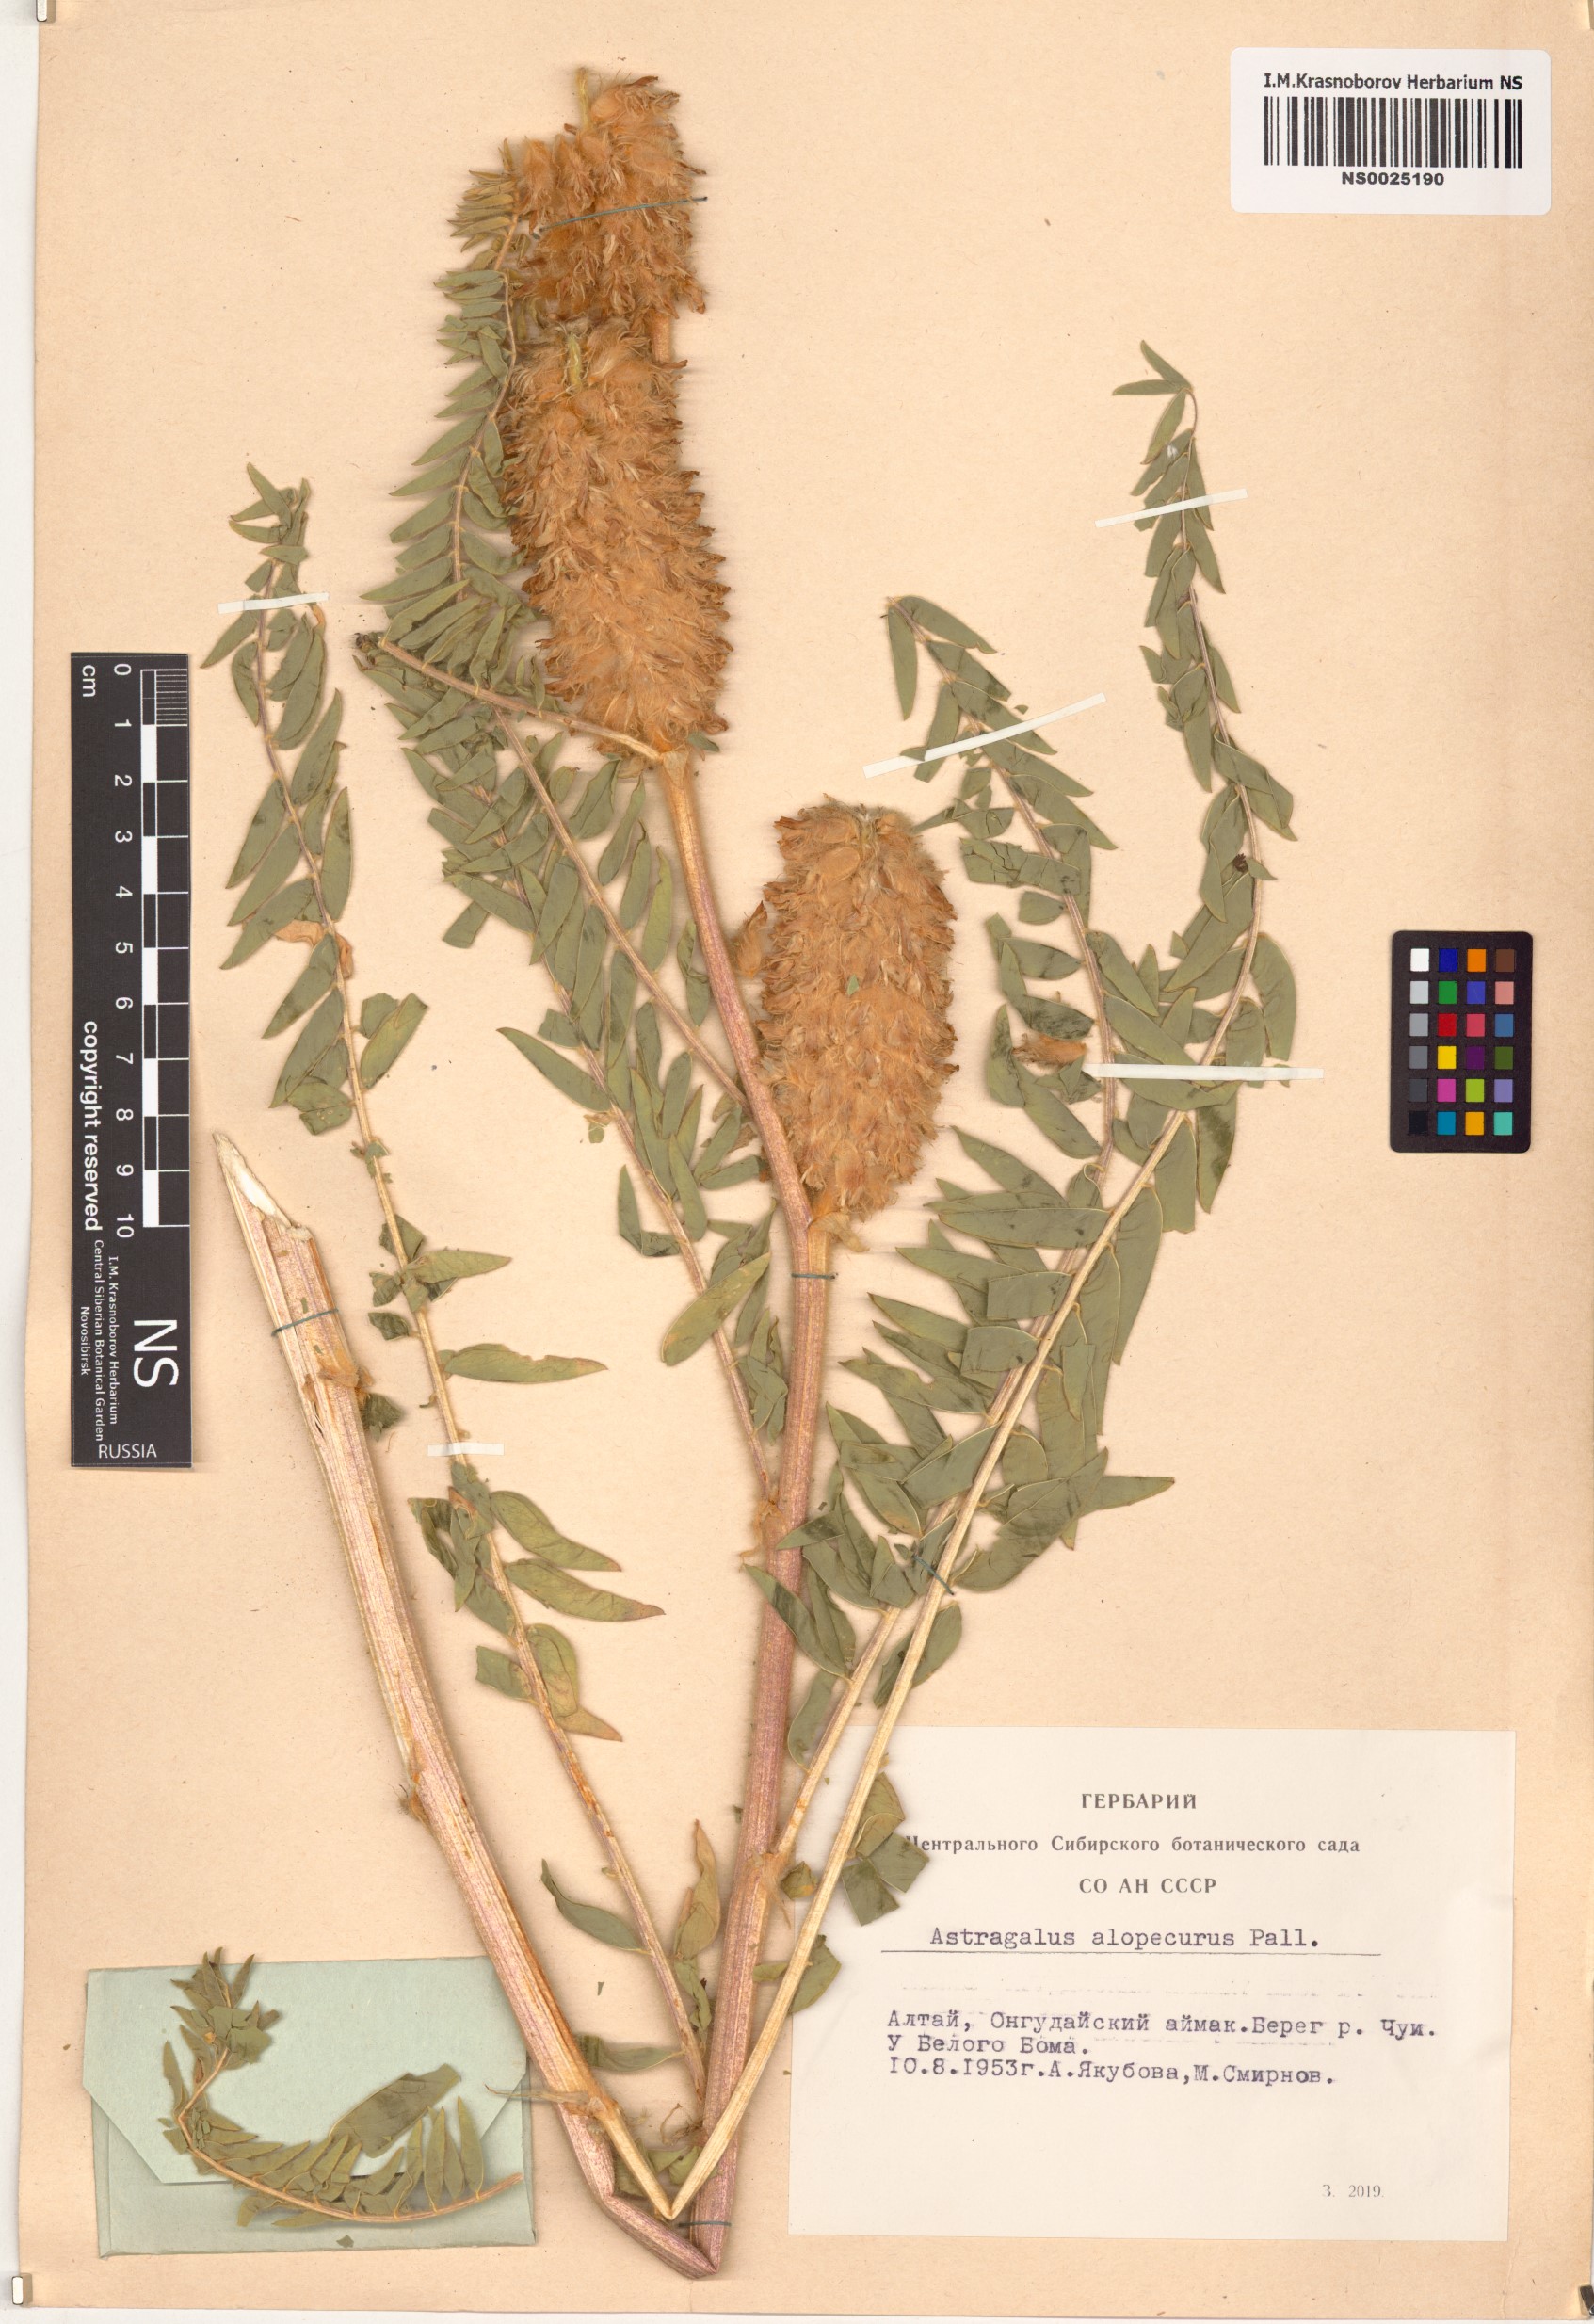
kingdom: Plantae
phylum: Tracheophyta
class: Magnoliopsida
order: Fabales
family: Fabaceae
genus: Astragalus
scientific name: Astragalus alopecurus
